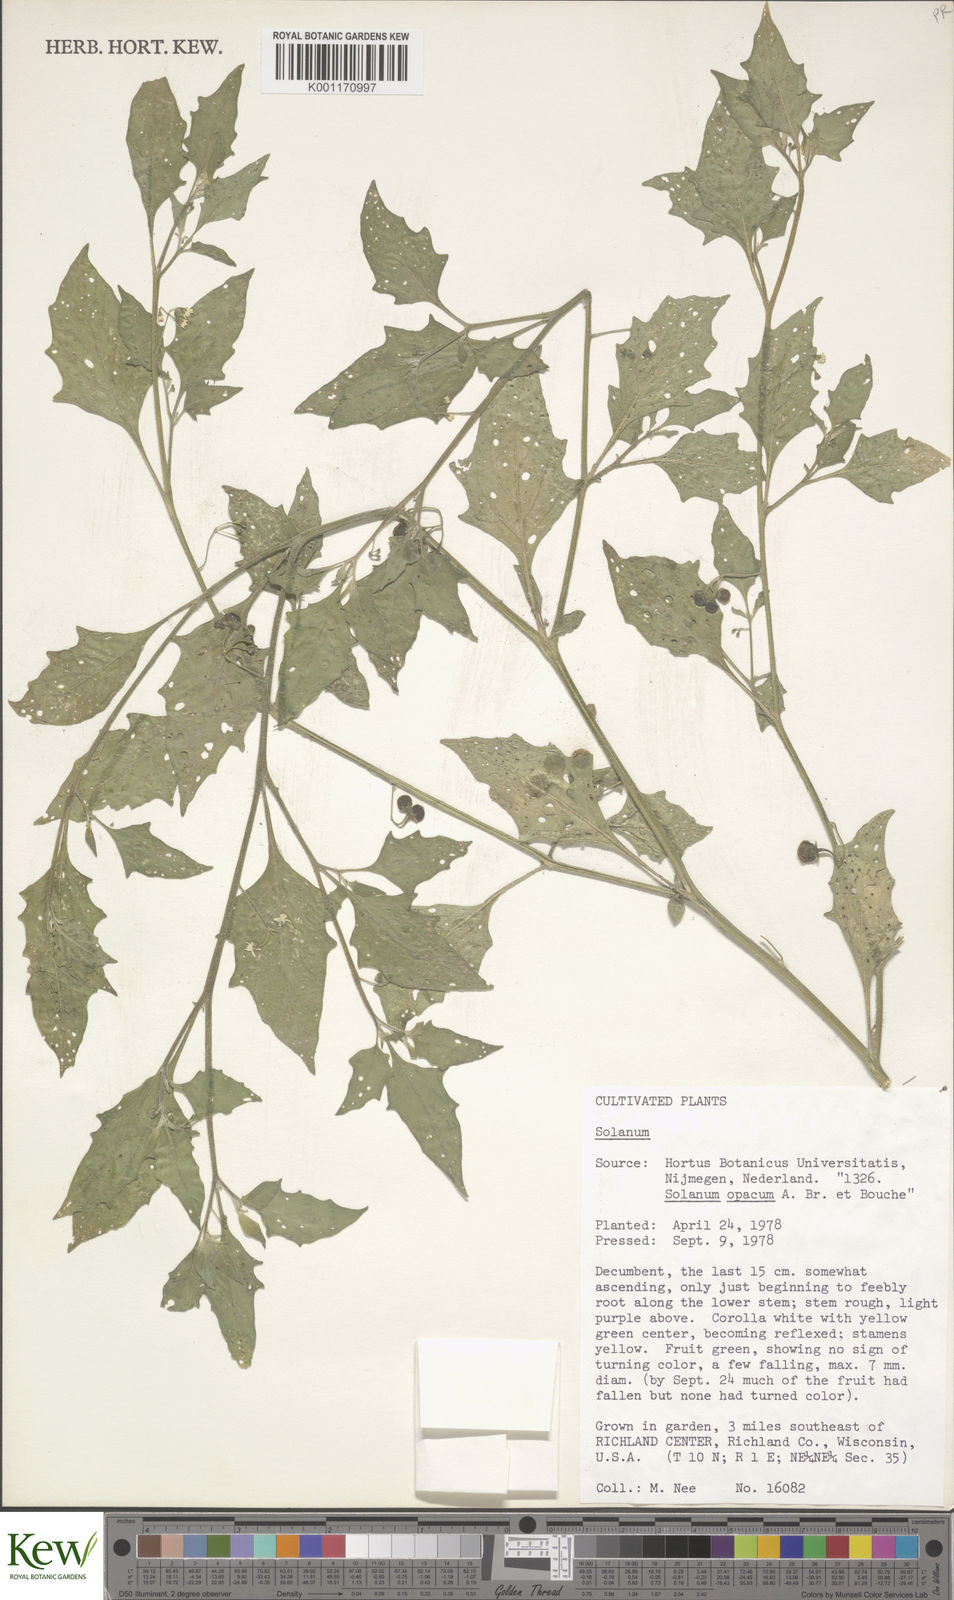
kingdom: Plantae
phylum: Tracheophyta
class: Magnoliopsida
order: Solanales
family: Solanaceae
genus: Solanum
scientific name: Solanum
